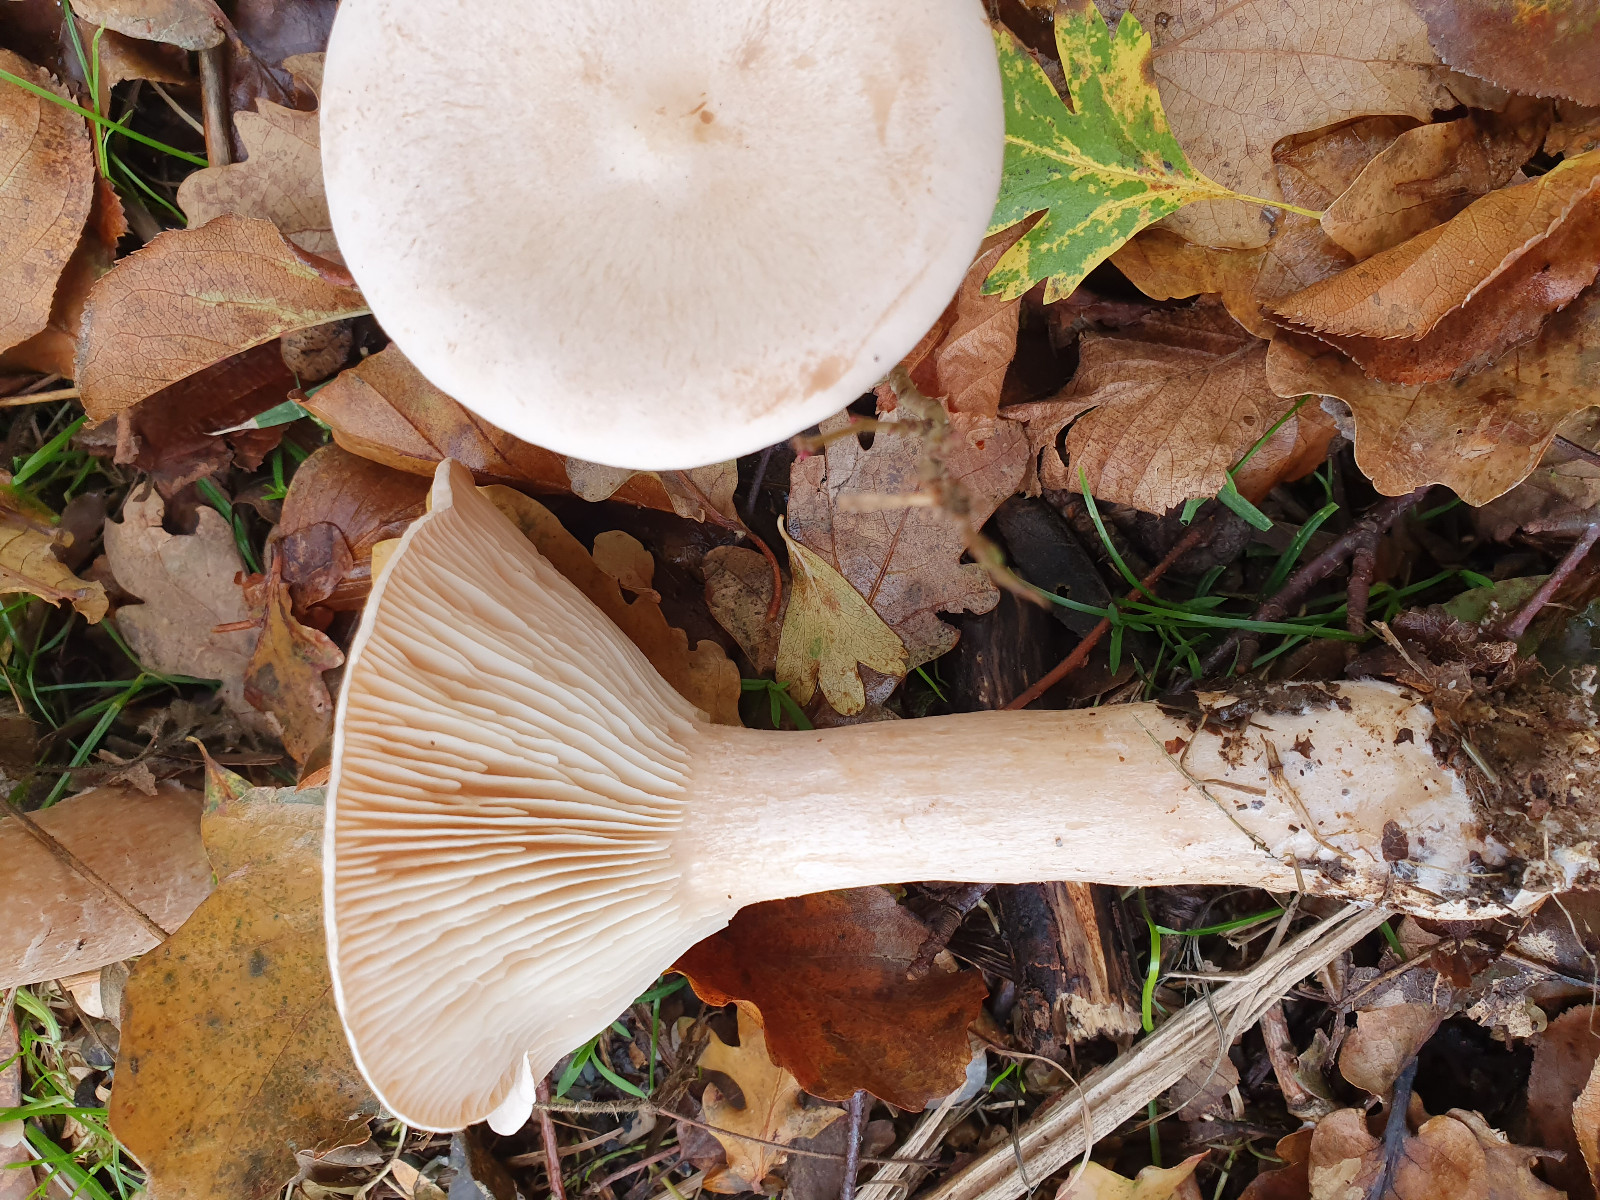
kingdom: Fungi
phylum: Basidiomycota
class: Agaricomycetes
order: Agaricales
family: Tricholomataceae
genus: Infundibulicybe
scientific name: Infundibulicybe geotropa
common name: stor tragthat
